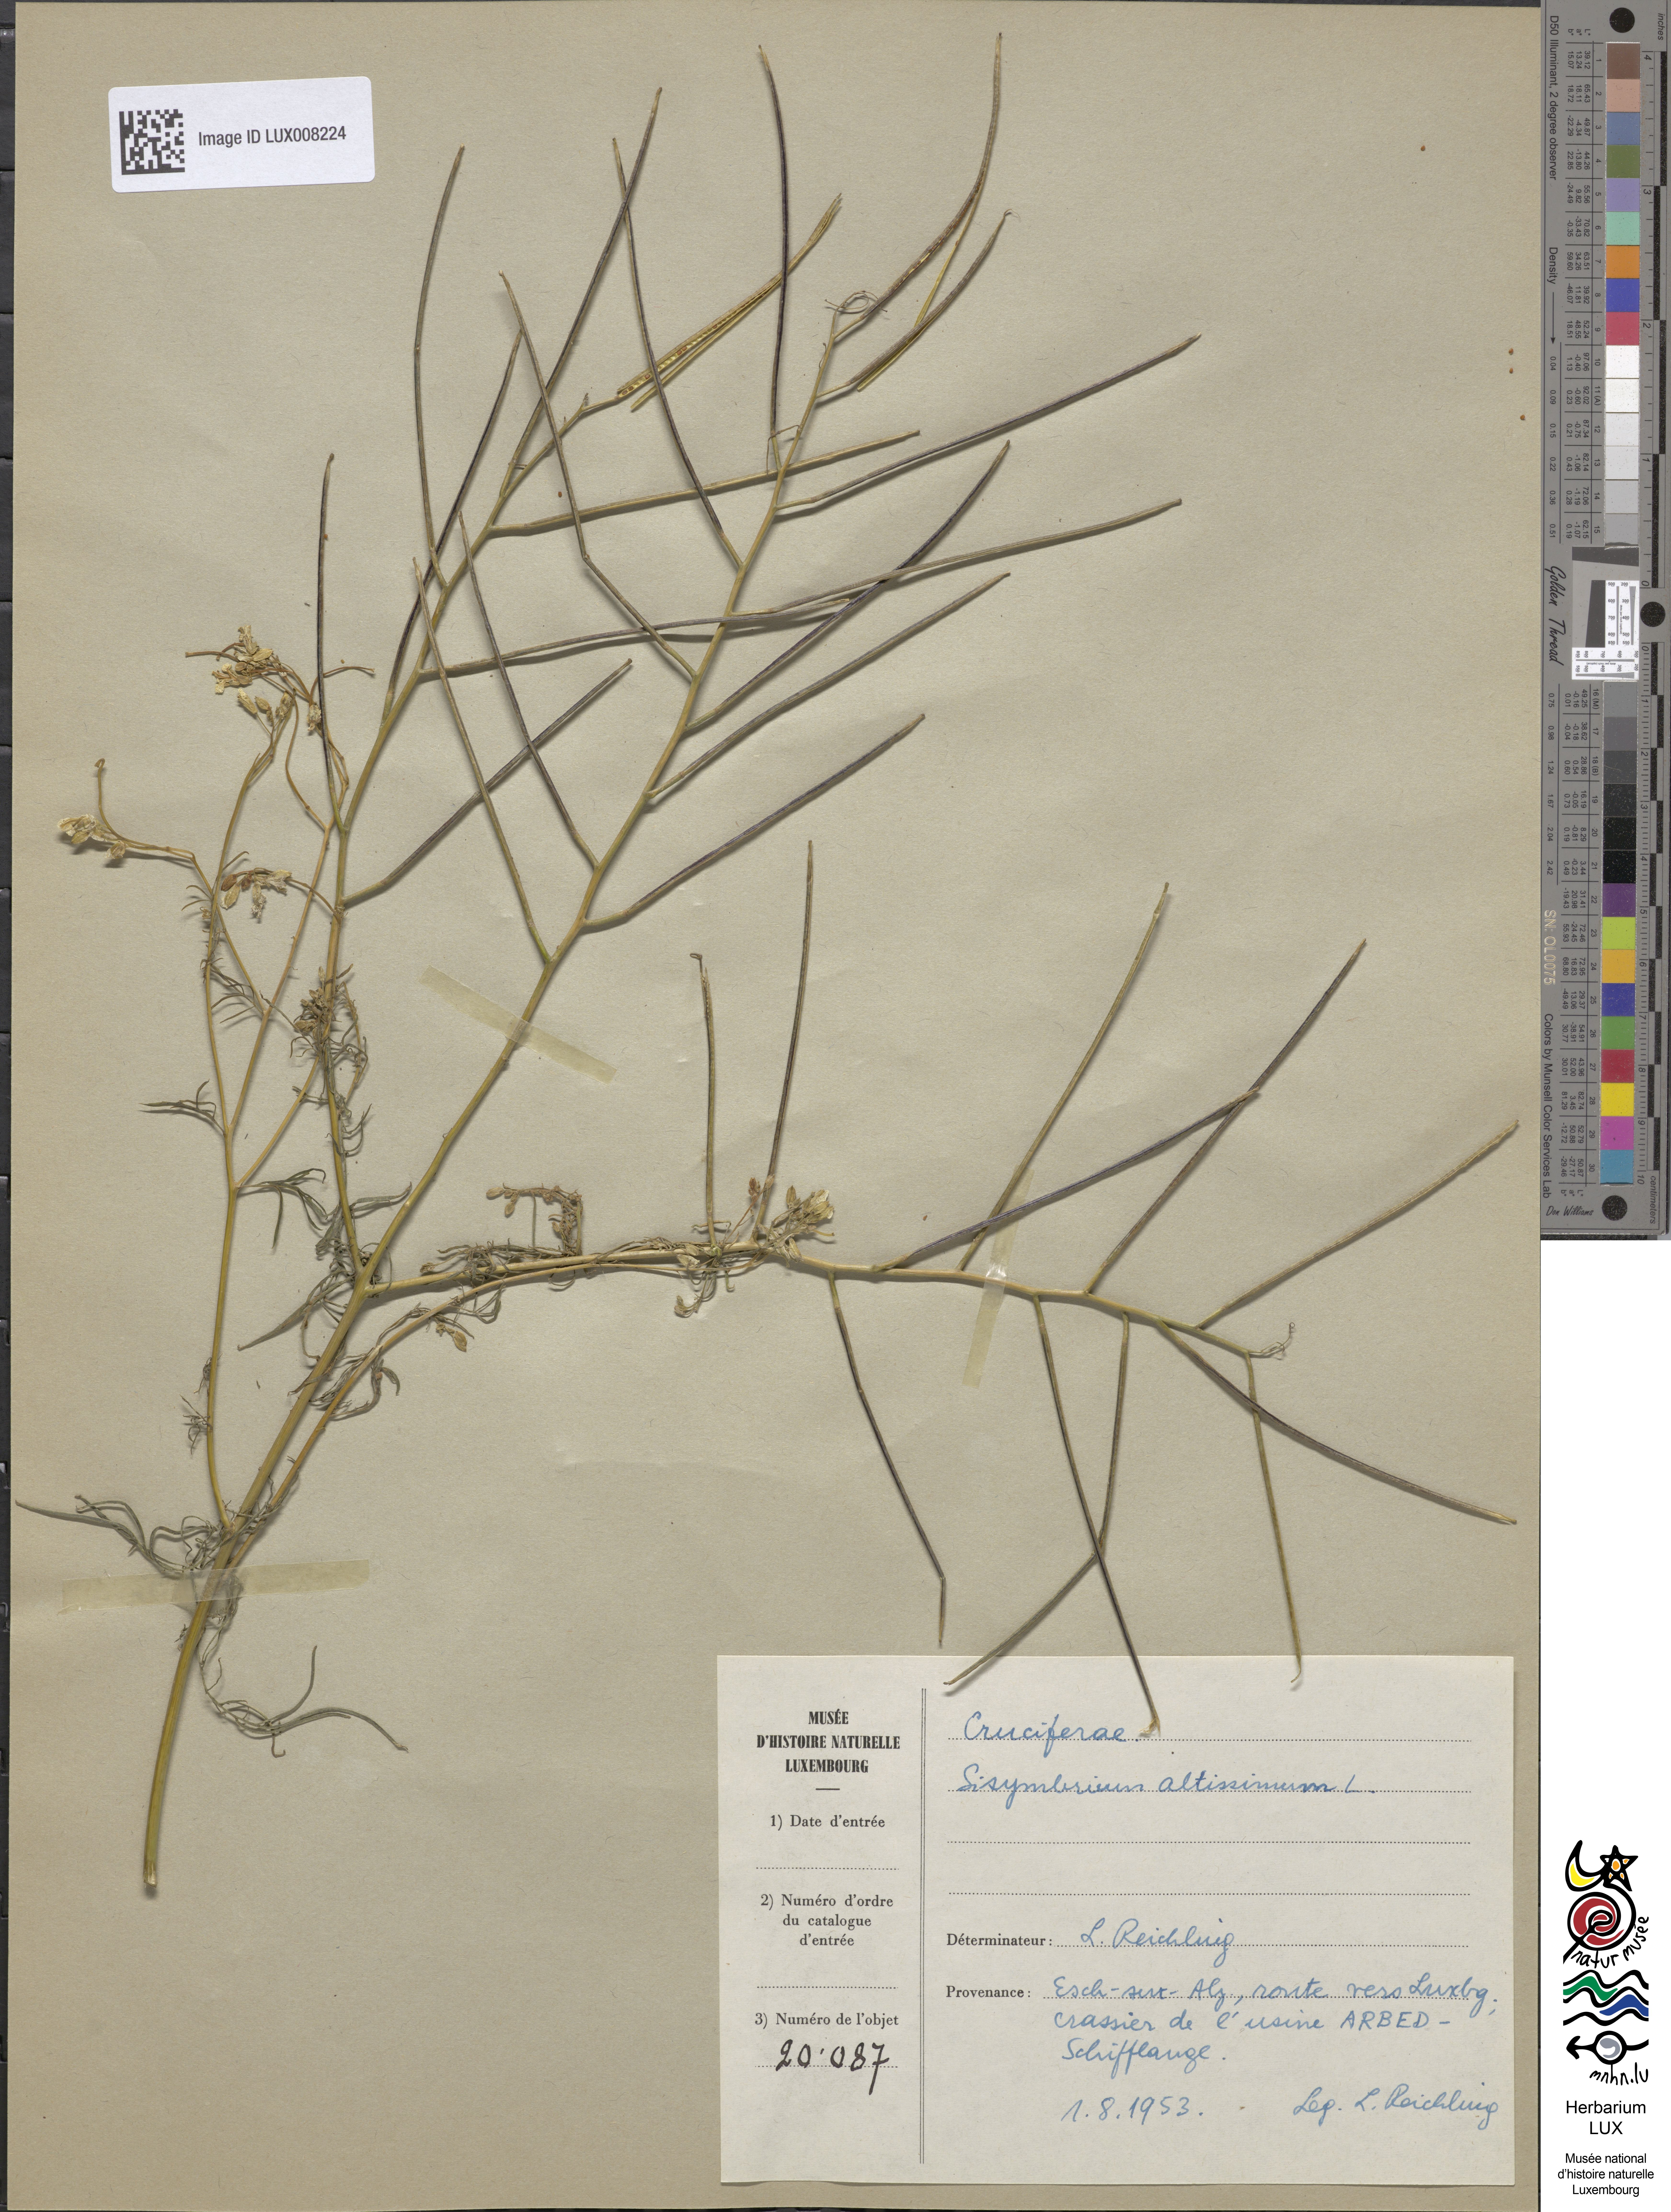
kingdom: Plantae
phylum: Tracheophyta
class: Magnoliopsida
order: Brassicales
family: Brassicaceae
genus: Sisymbrium
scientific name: Sisymbrium altissimum
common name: Tall rocket
